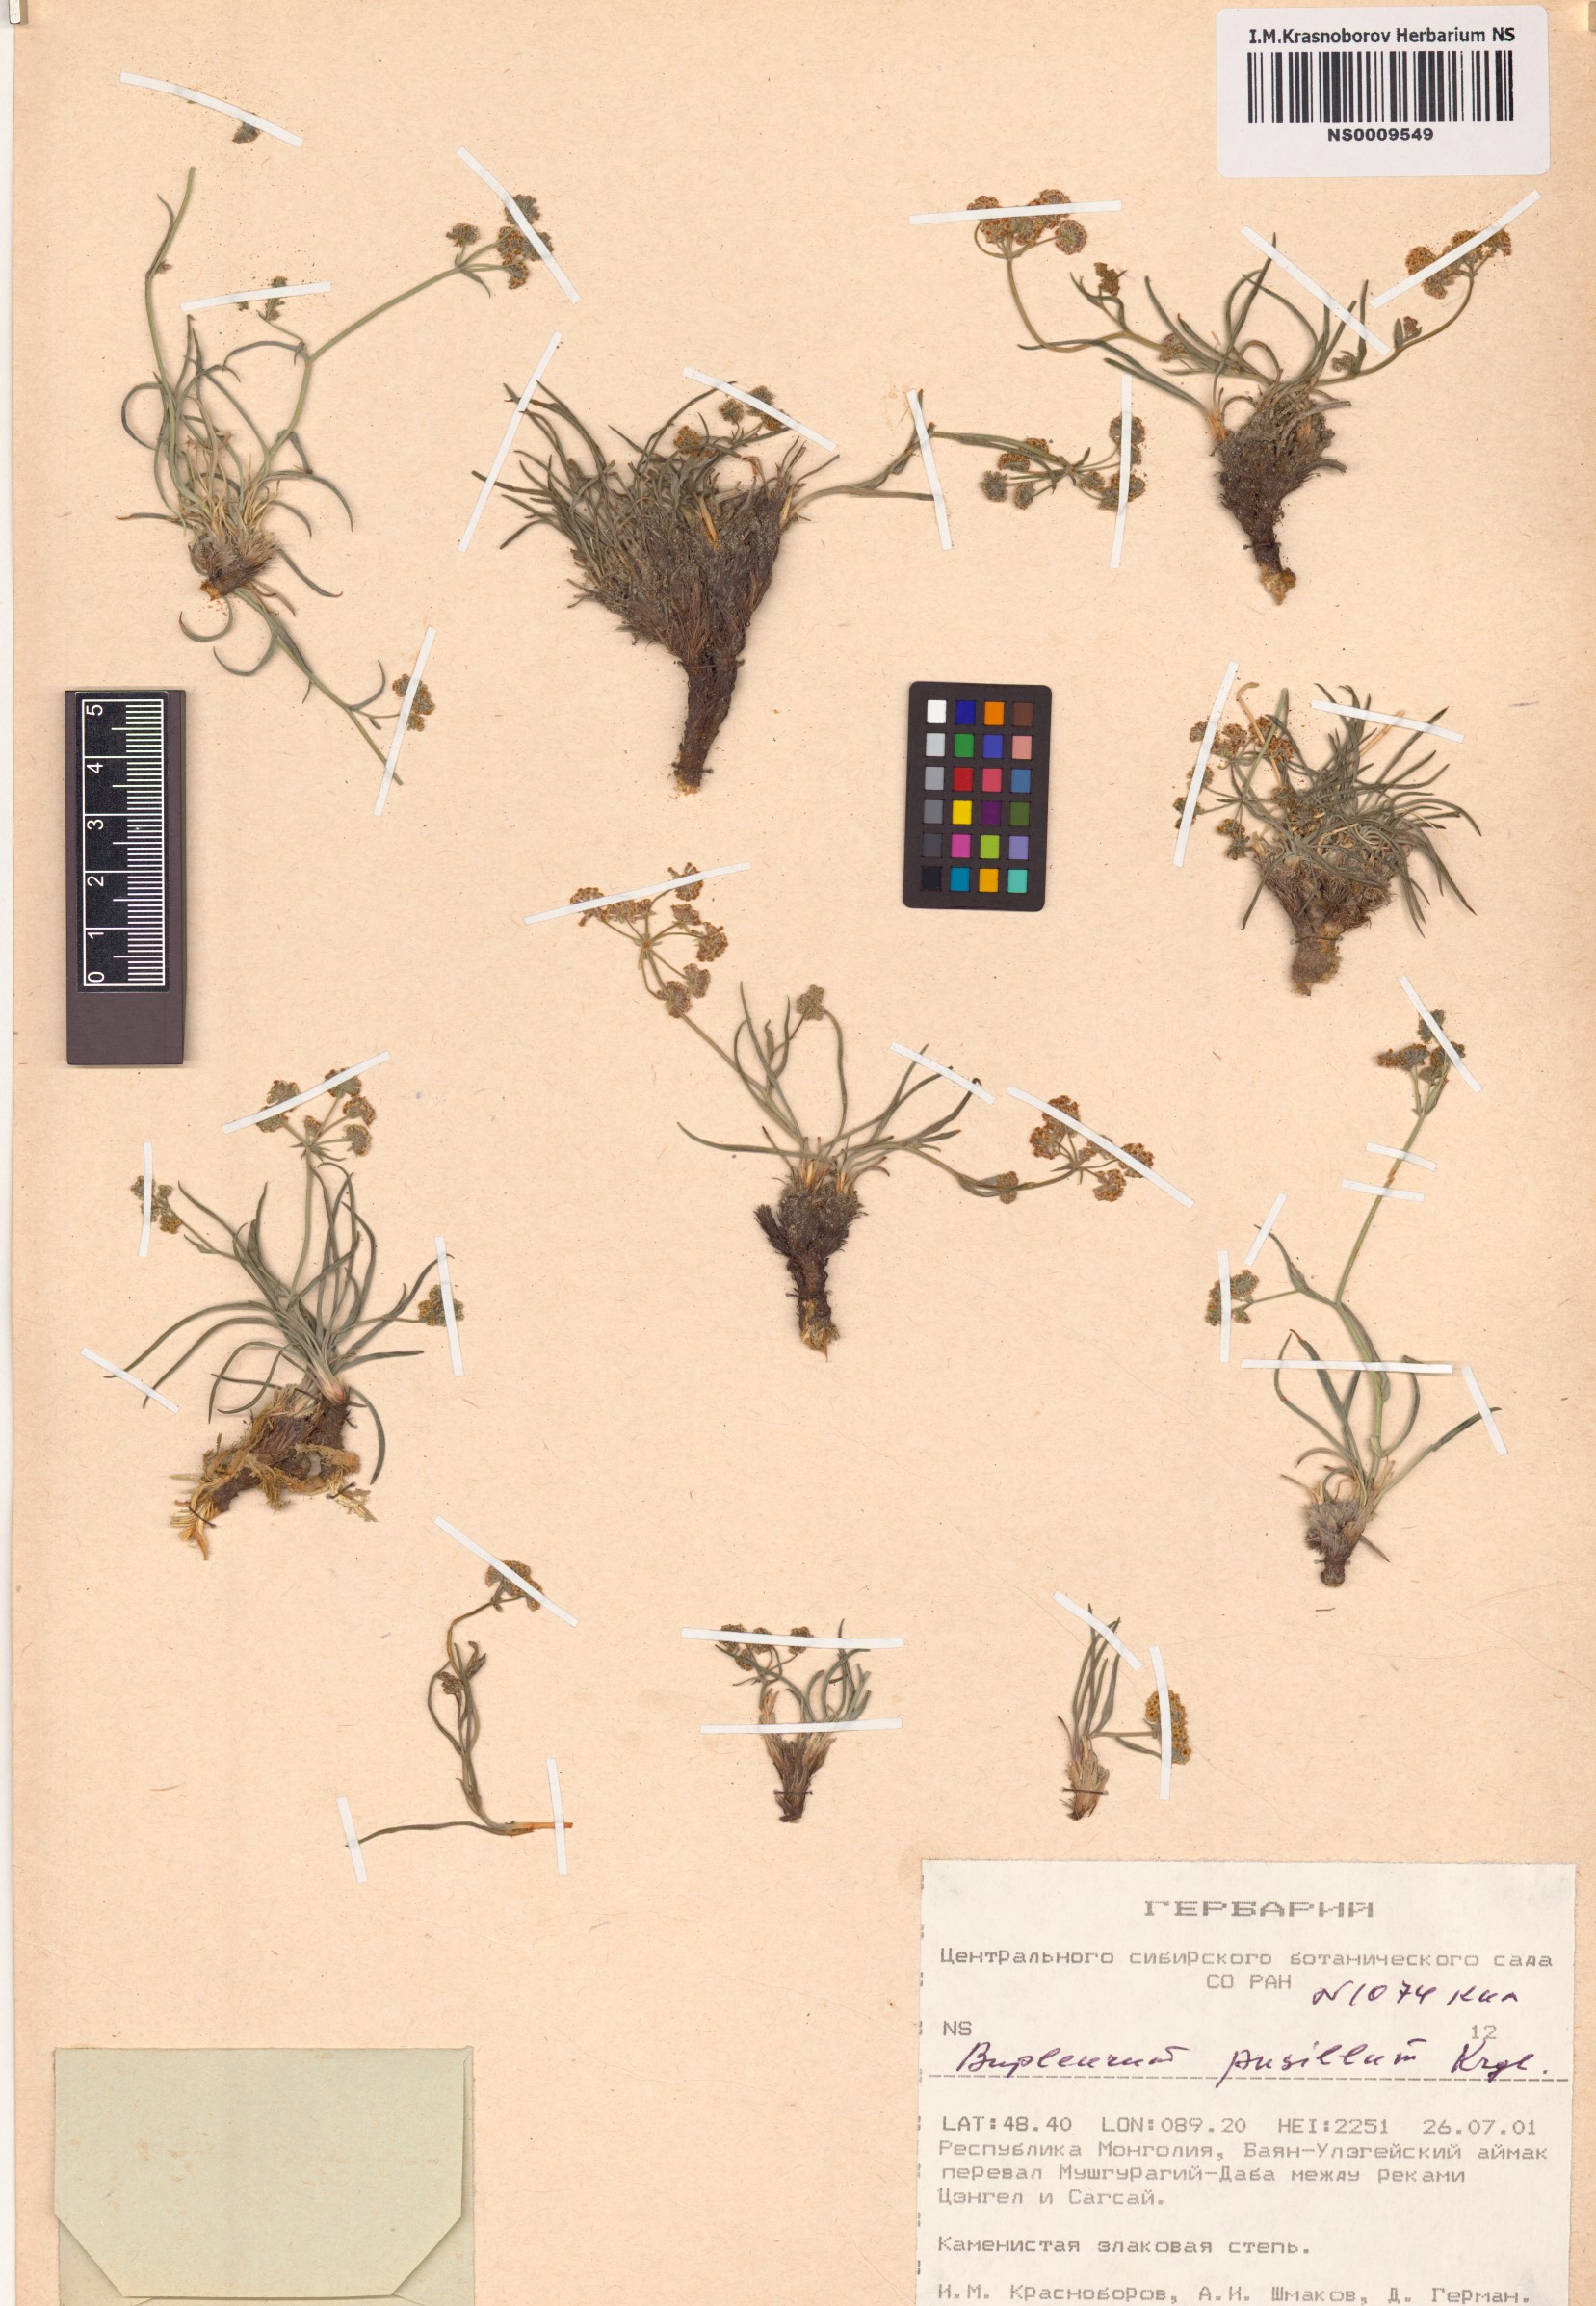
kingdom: Plantae
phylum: Tracheophyta
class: Magnoliopsida
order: Apiales
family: Apiaceae
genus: Bupleurum
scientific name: Bupleurum bicaule
